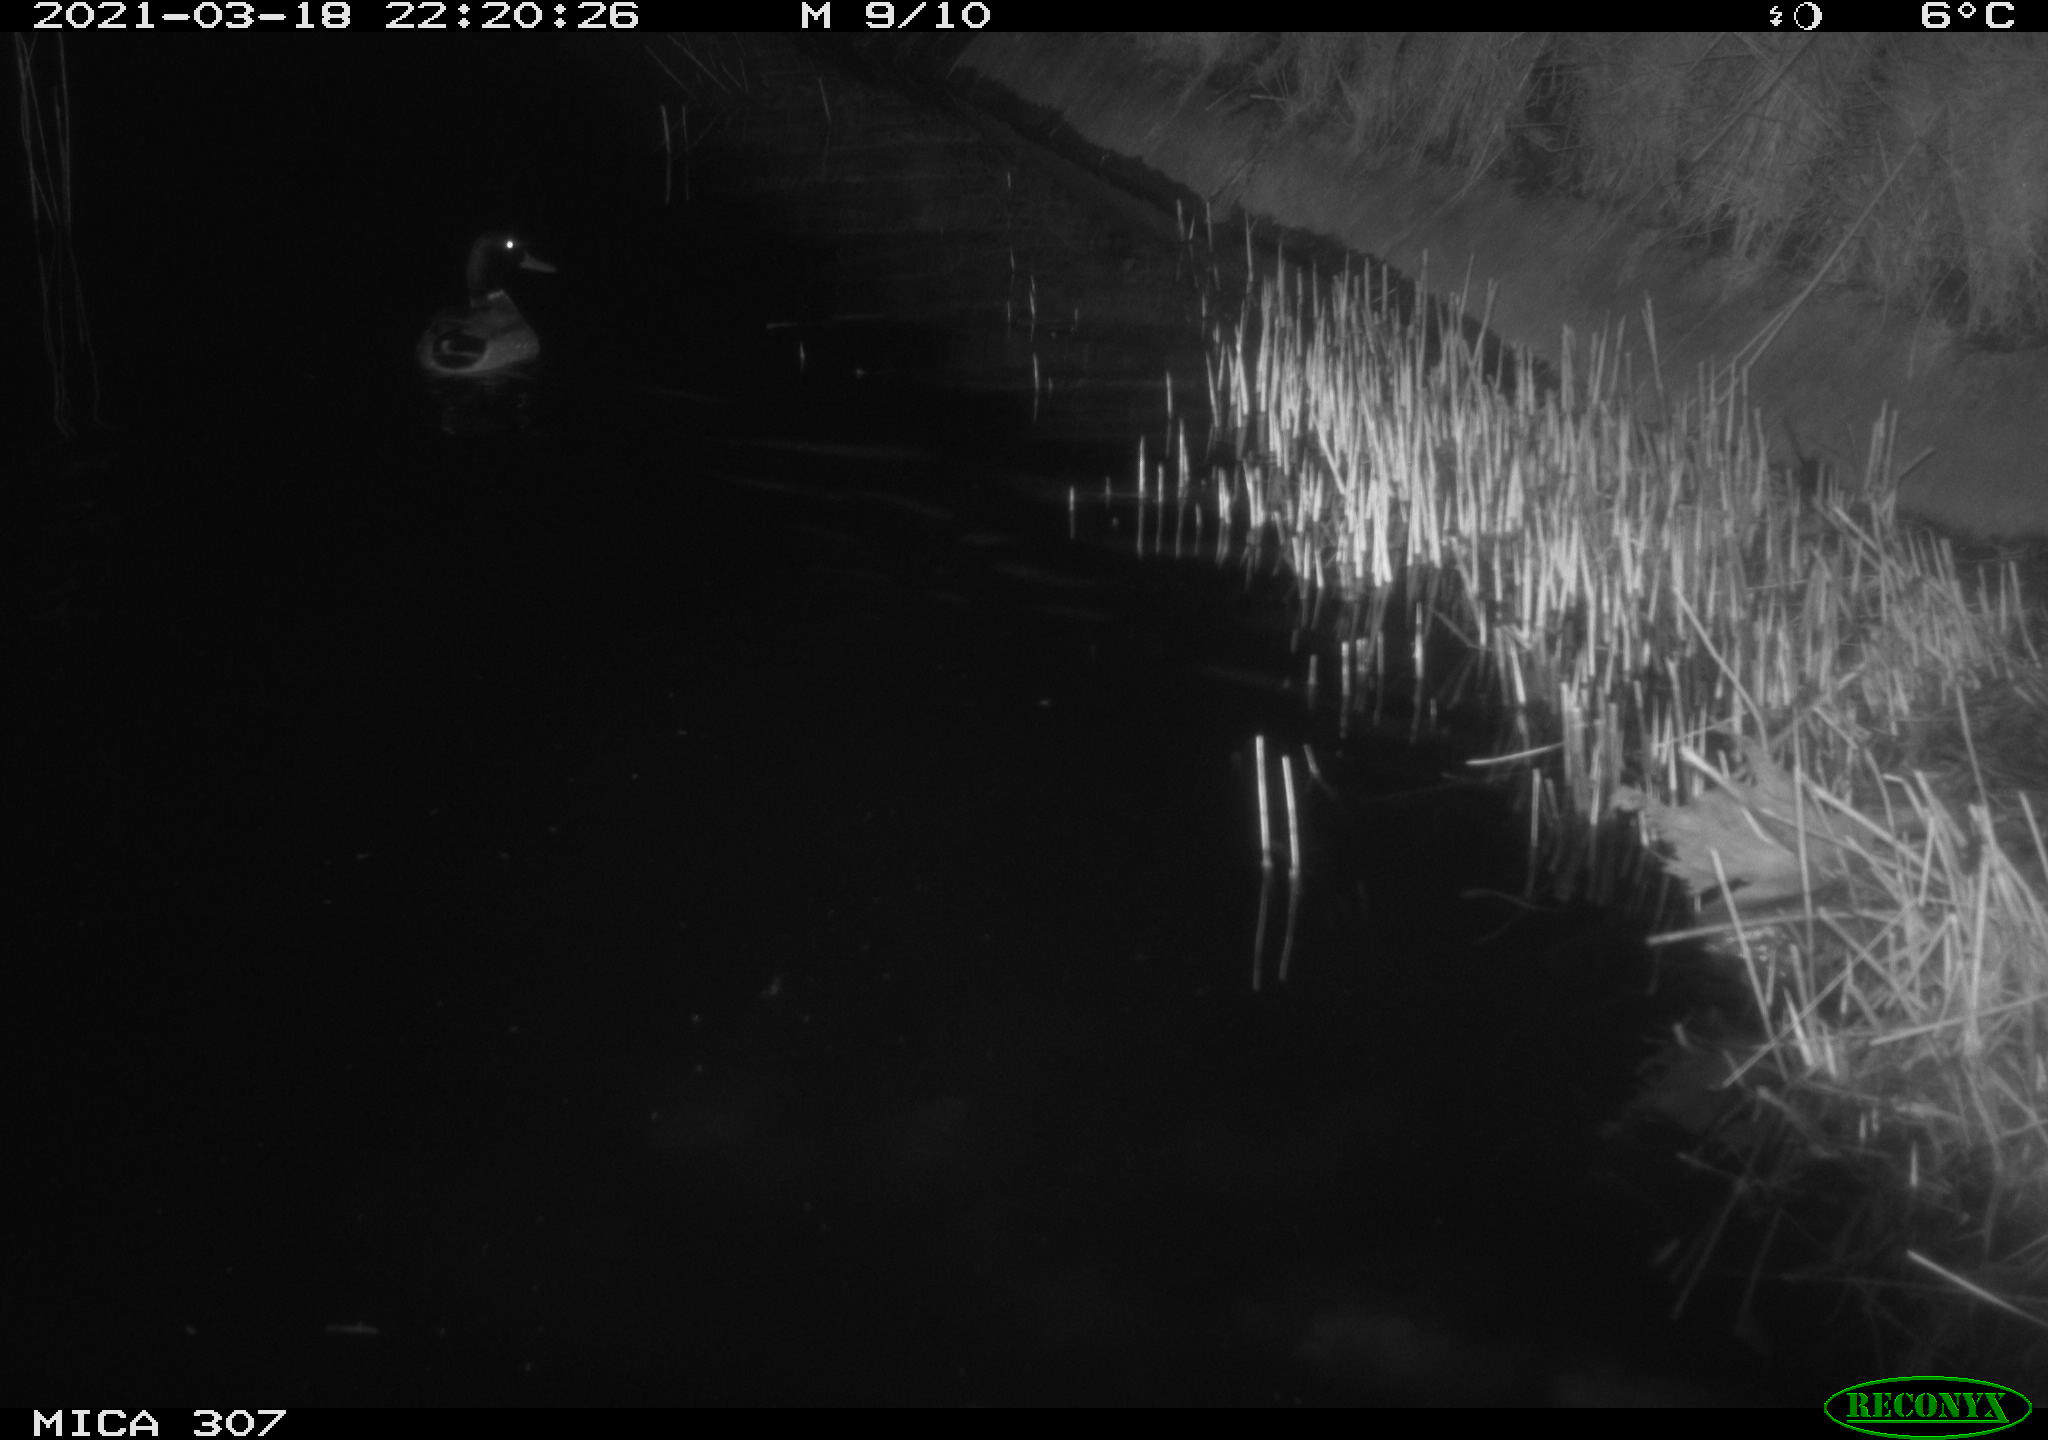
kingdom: Animalia
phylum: Chordata
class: Aves
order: Anseriformes
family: Anatidae
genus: Anas
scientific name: Anas platyrhynchos
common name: Mallard
